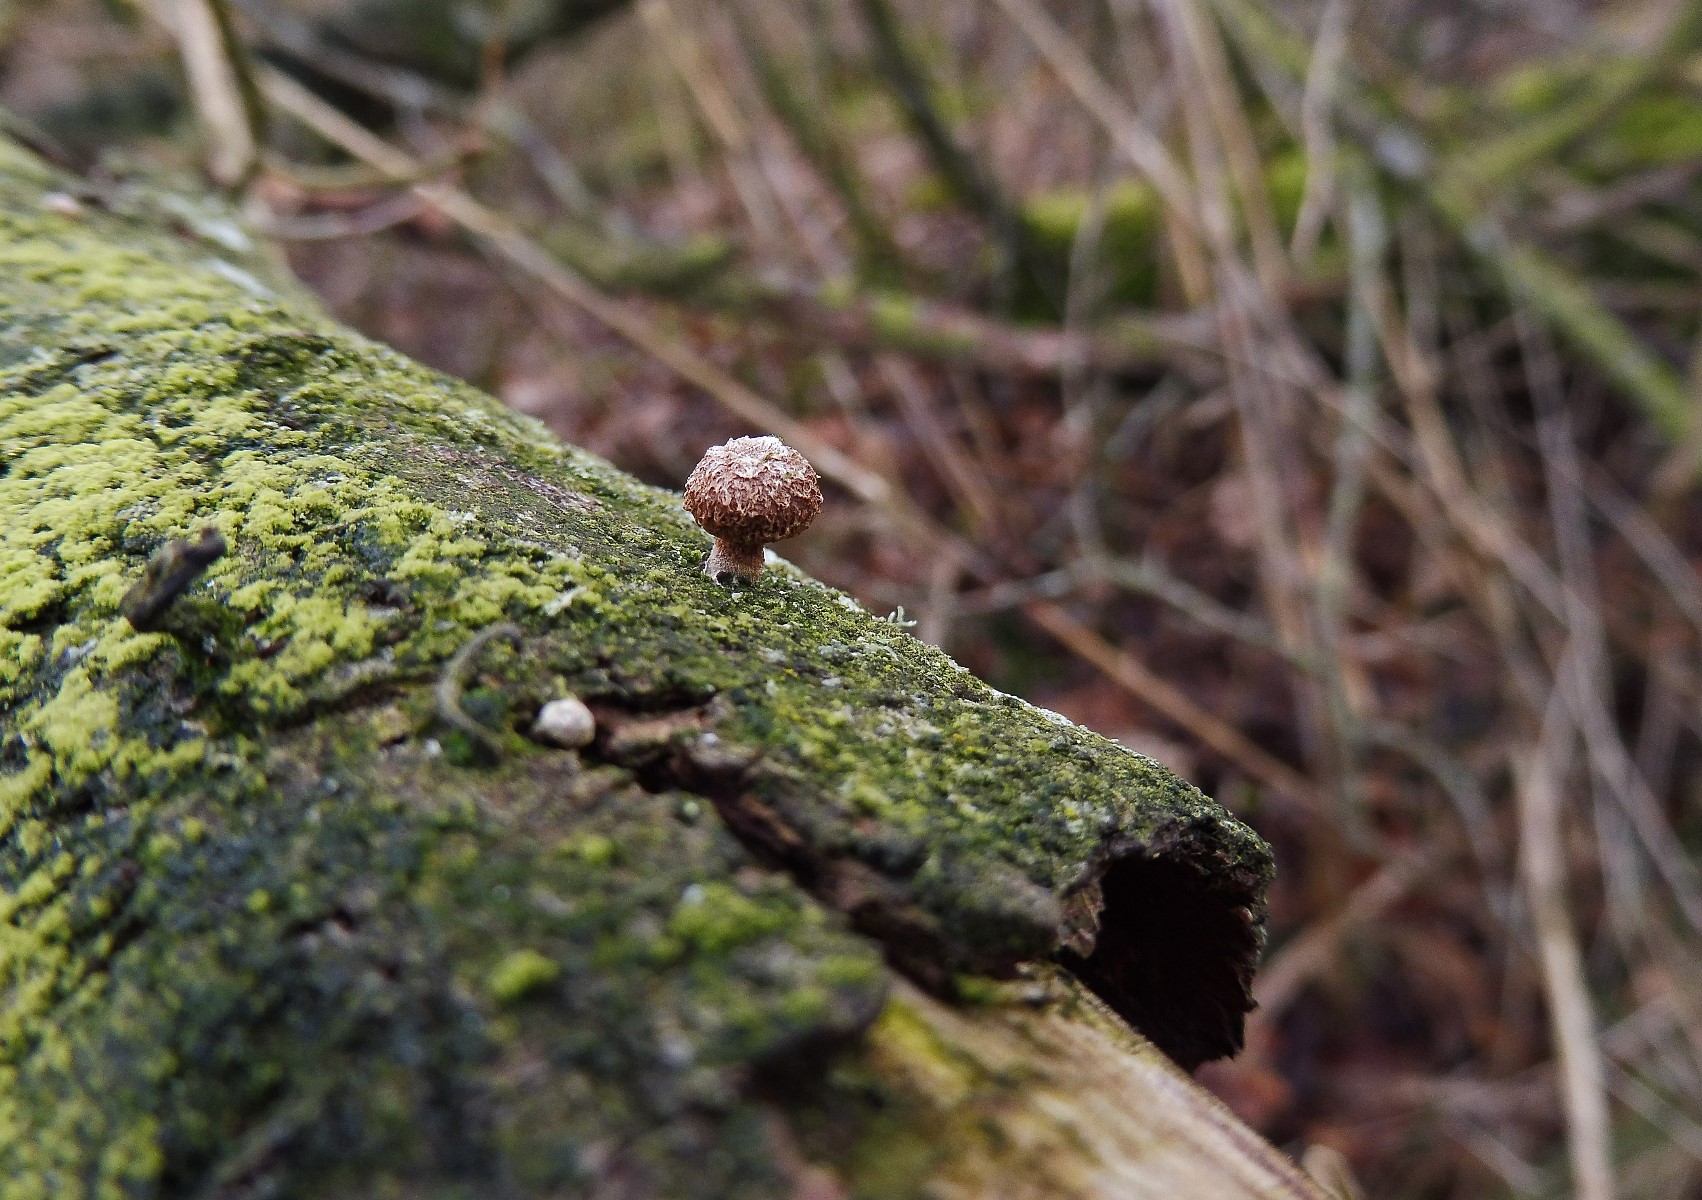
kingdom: Fungi
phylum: Basidiomycota
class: Agaricomycetes
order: Agaricales
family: Tubariaceae
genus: Phaeomarasmius
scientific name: Phaeomarasmius erinaceus
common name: spidsskælhat
